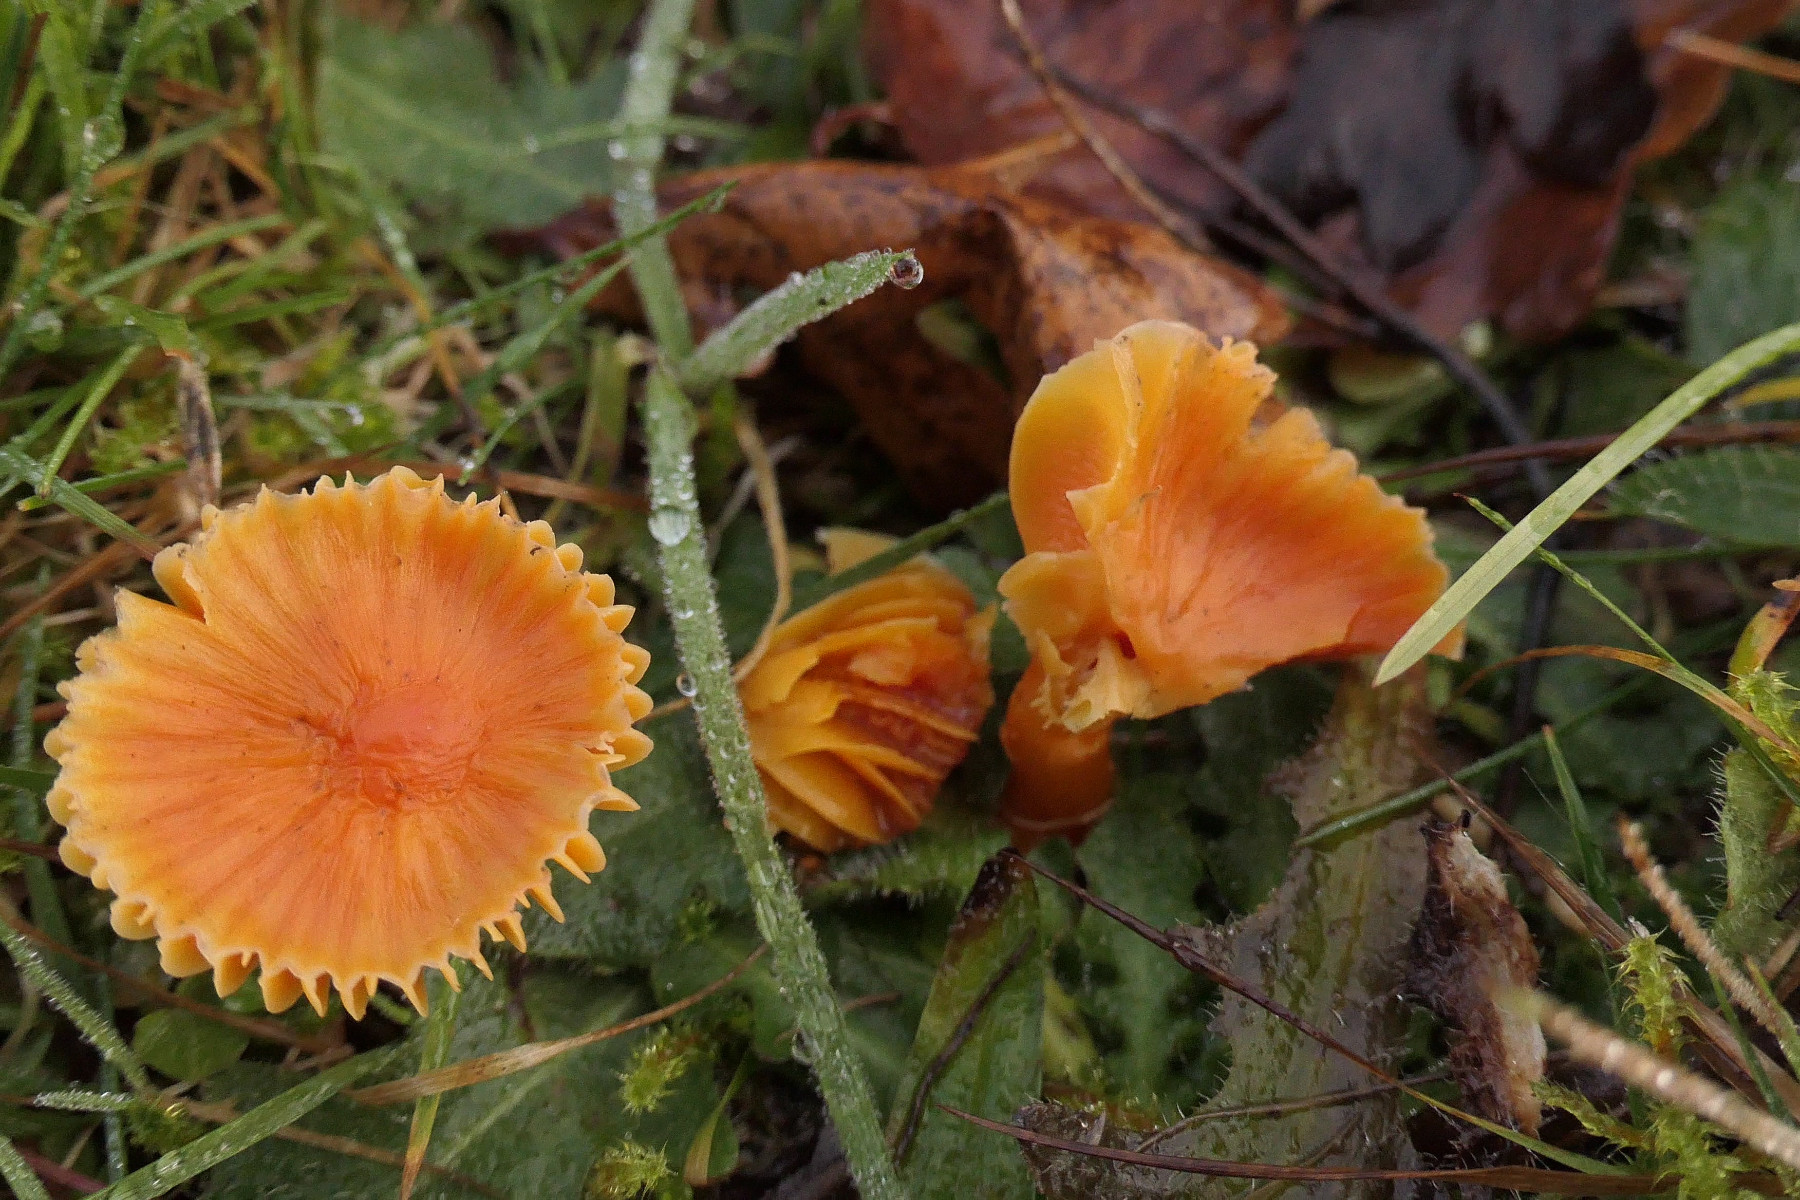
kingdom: Fungi
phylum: Basidiomycota
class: Agaricomycetes
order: Agaricales
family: Hygrophoraceae
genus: Hygrocybe
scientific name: Hygrocybe insipida
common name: liden vokshat
